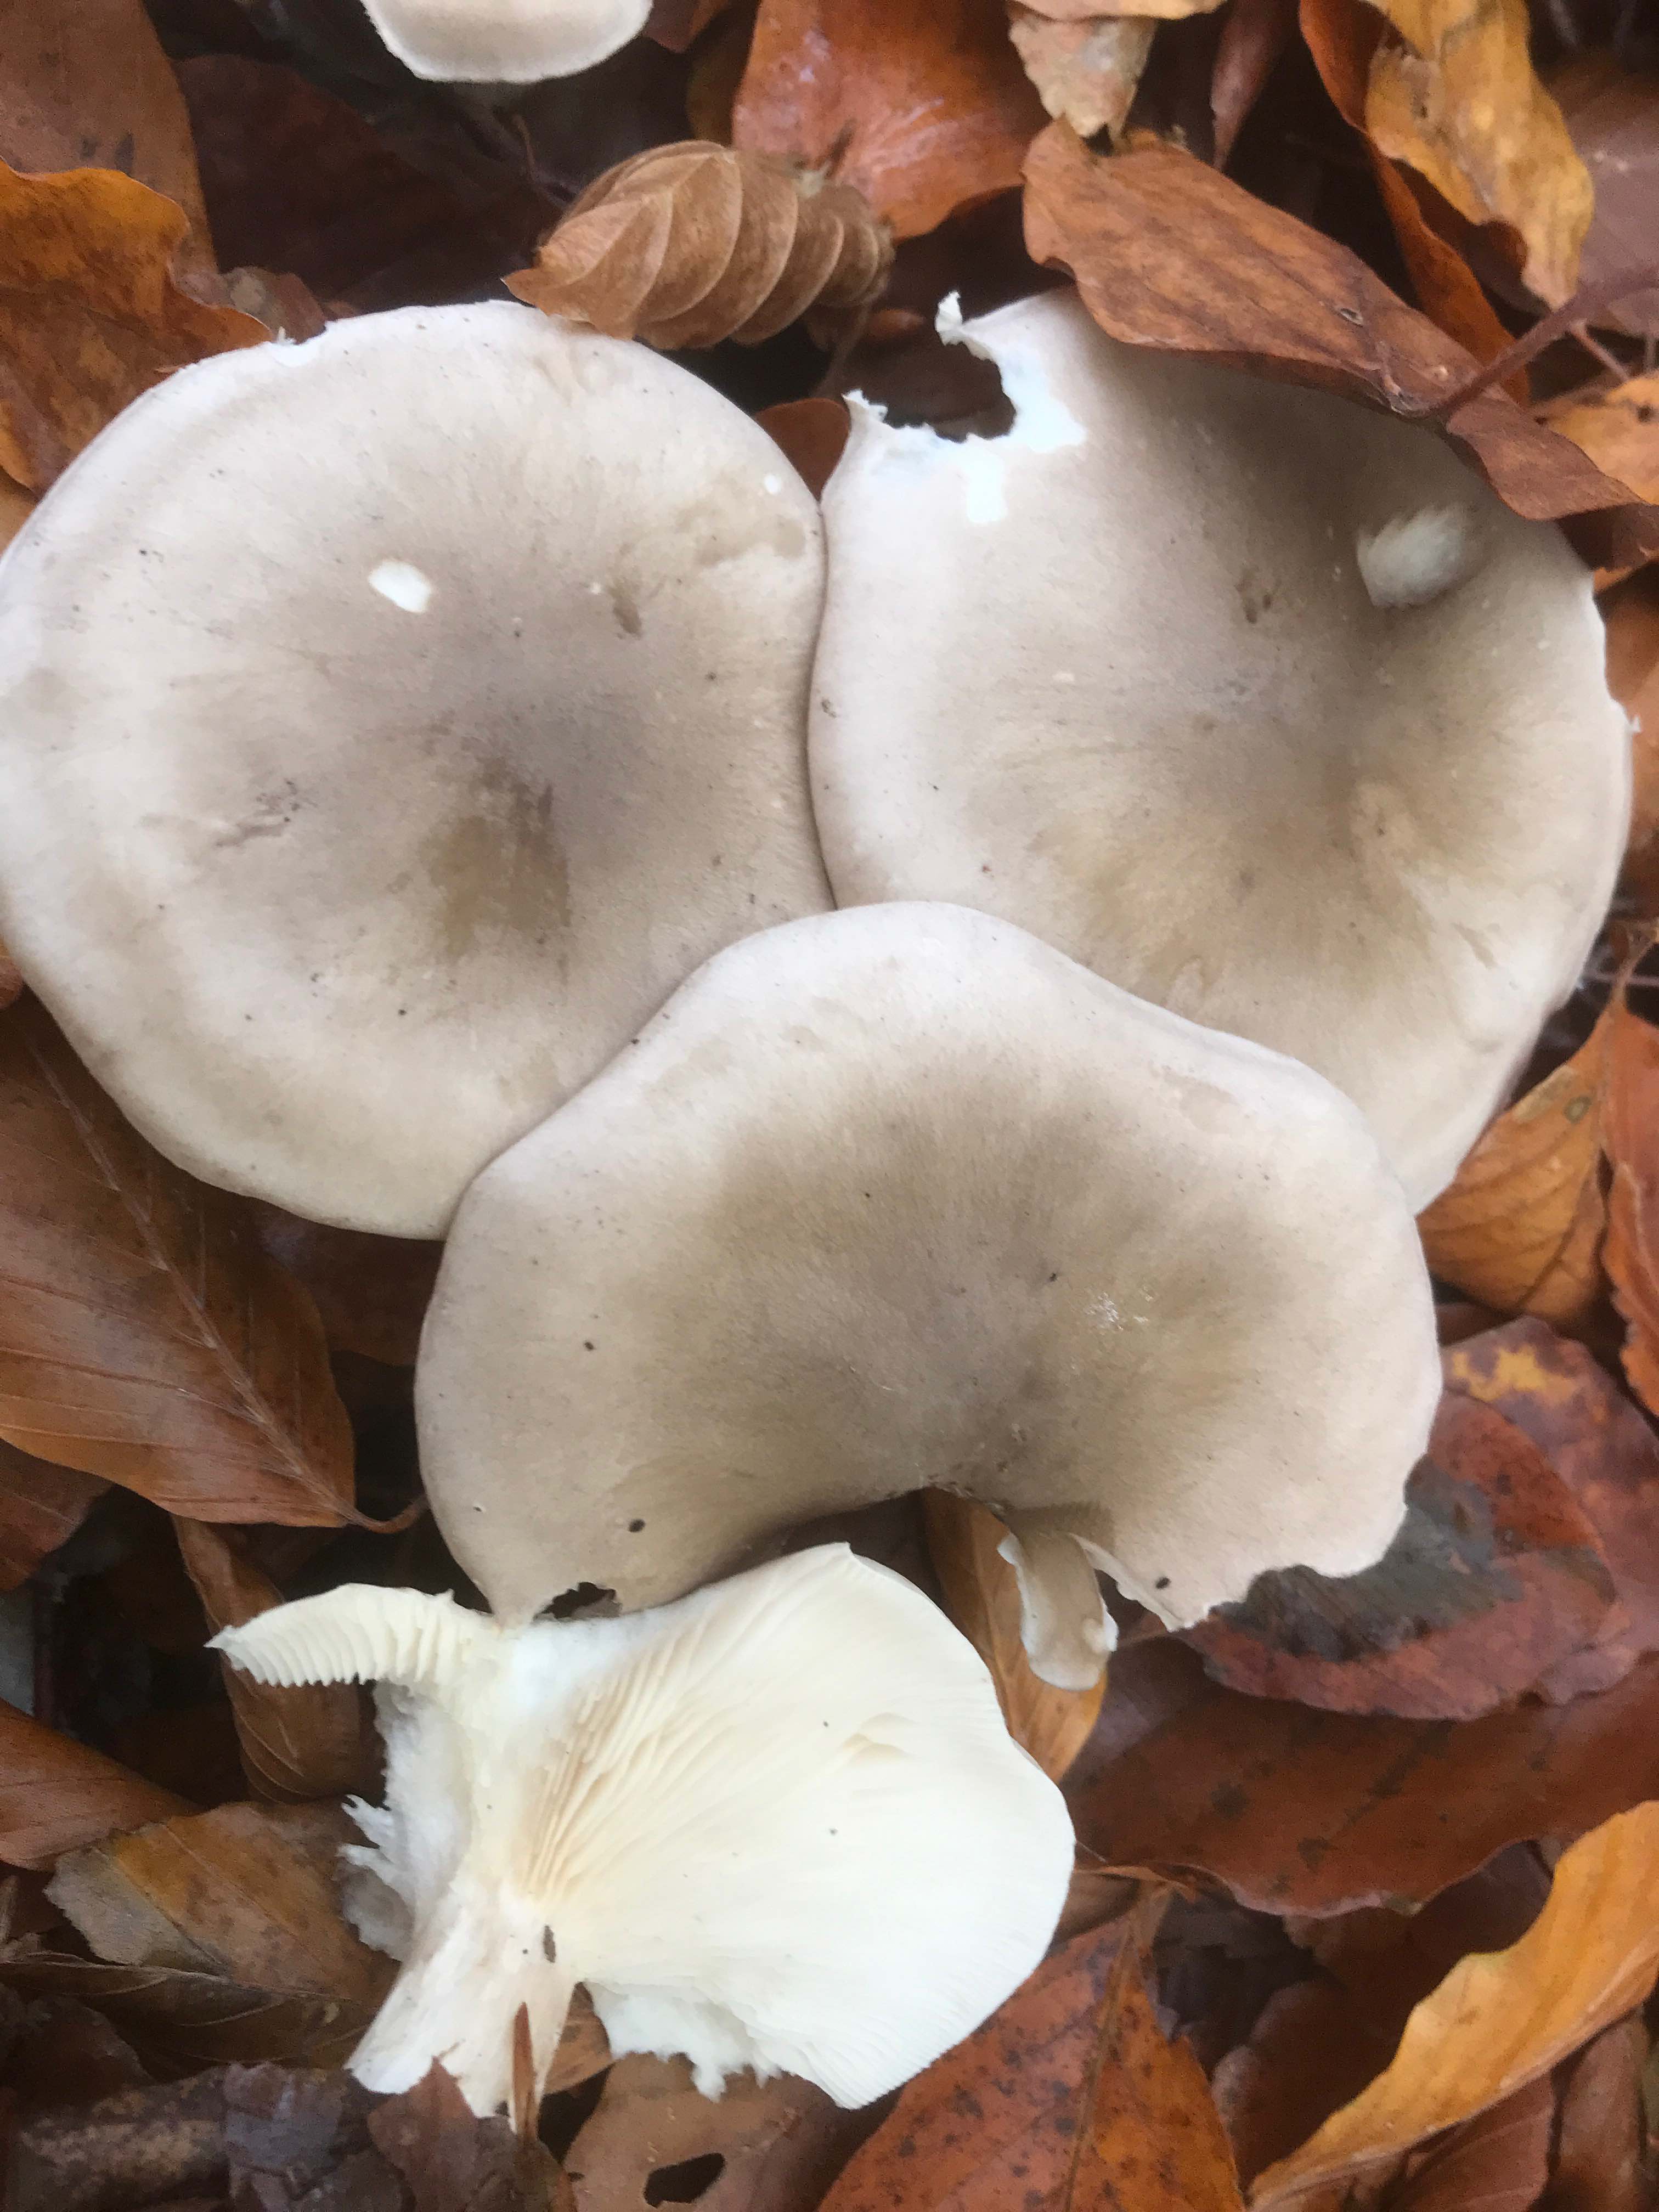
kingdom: Fungi
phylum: Basidiomycota
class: Agaricomycetes
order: Agaricales
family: Tricholomataceae
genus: Clitocybe
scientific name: Clitocybe nebularis
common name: tåge-tragthat
